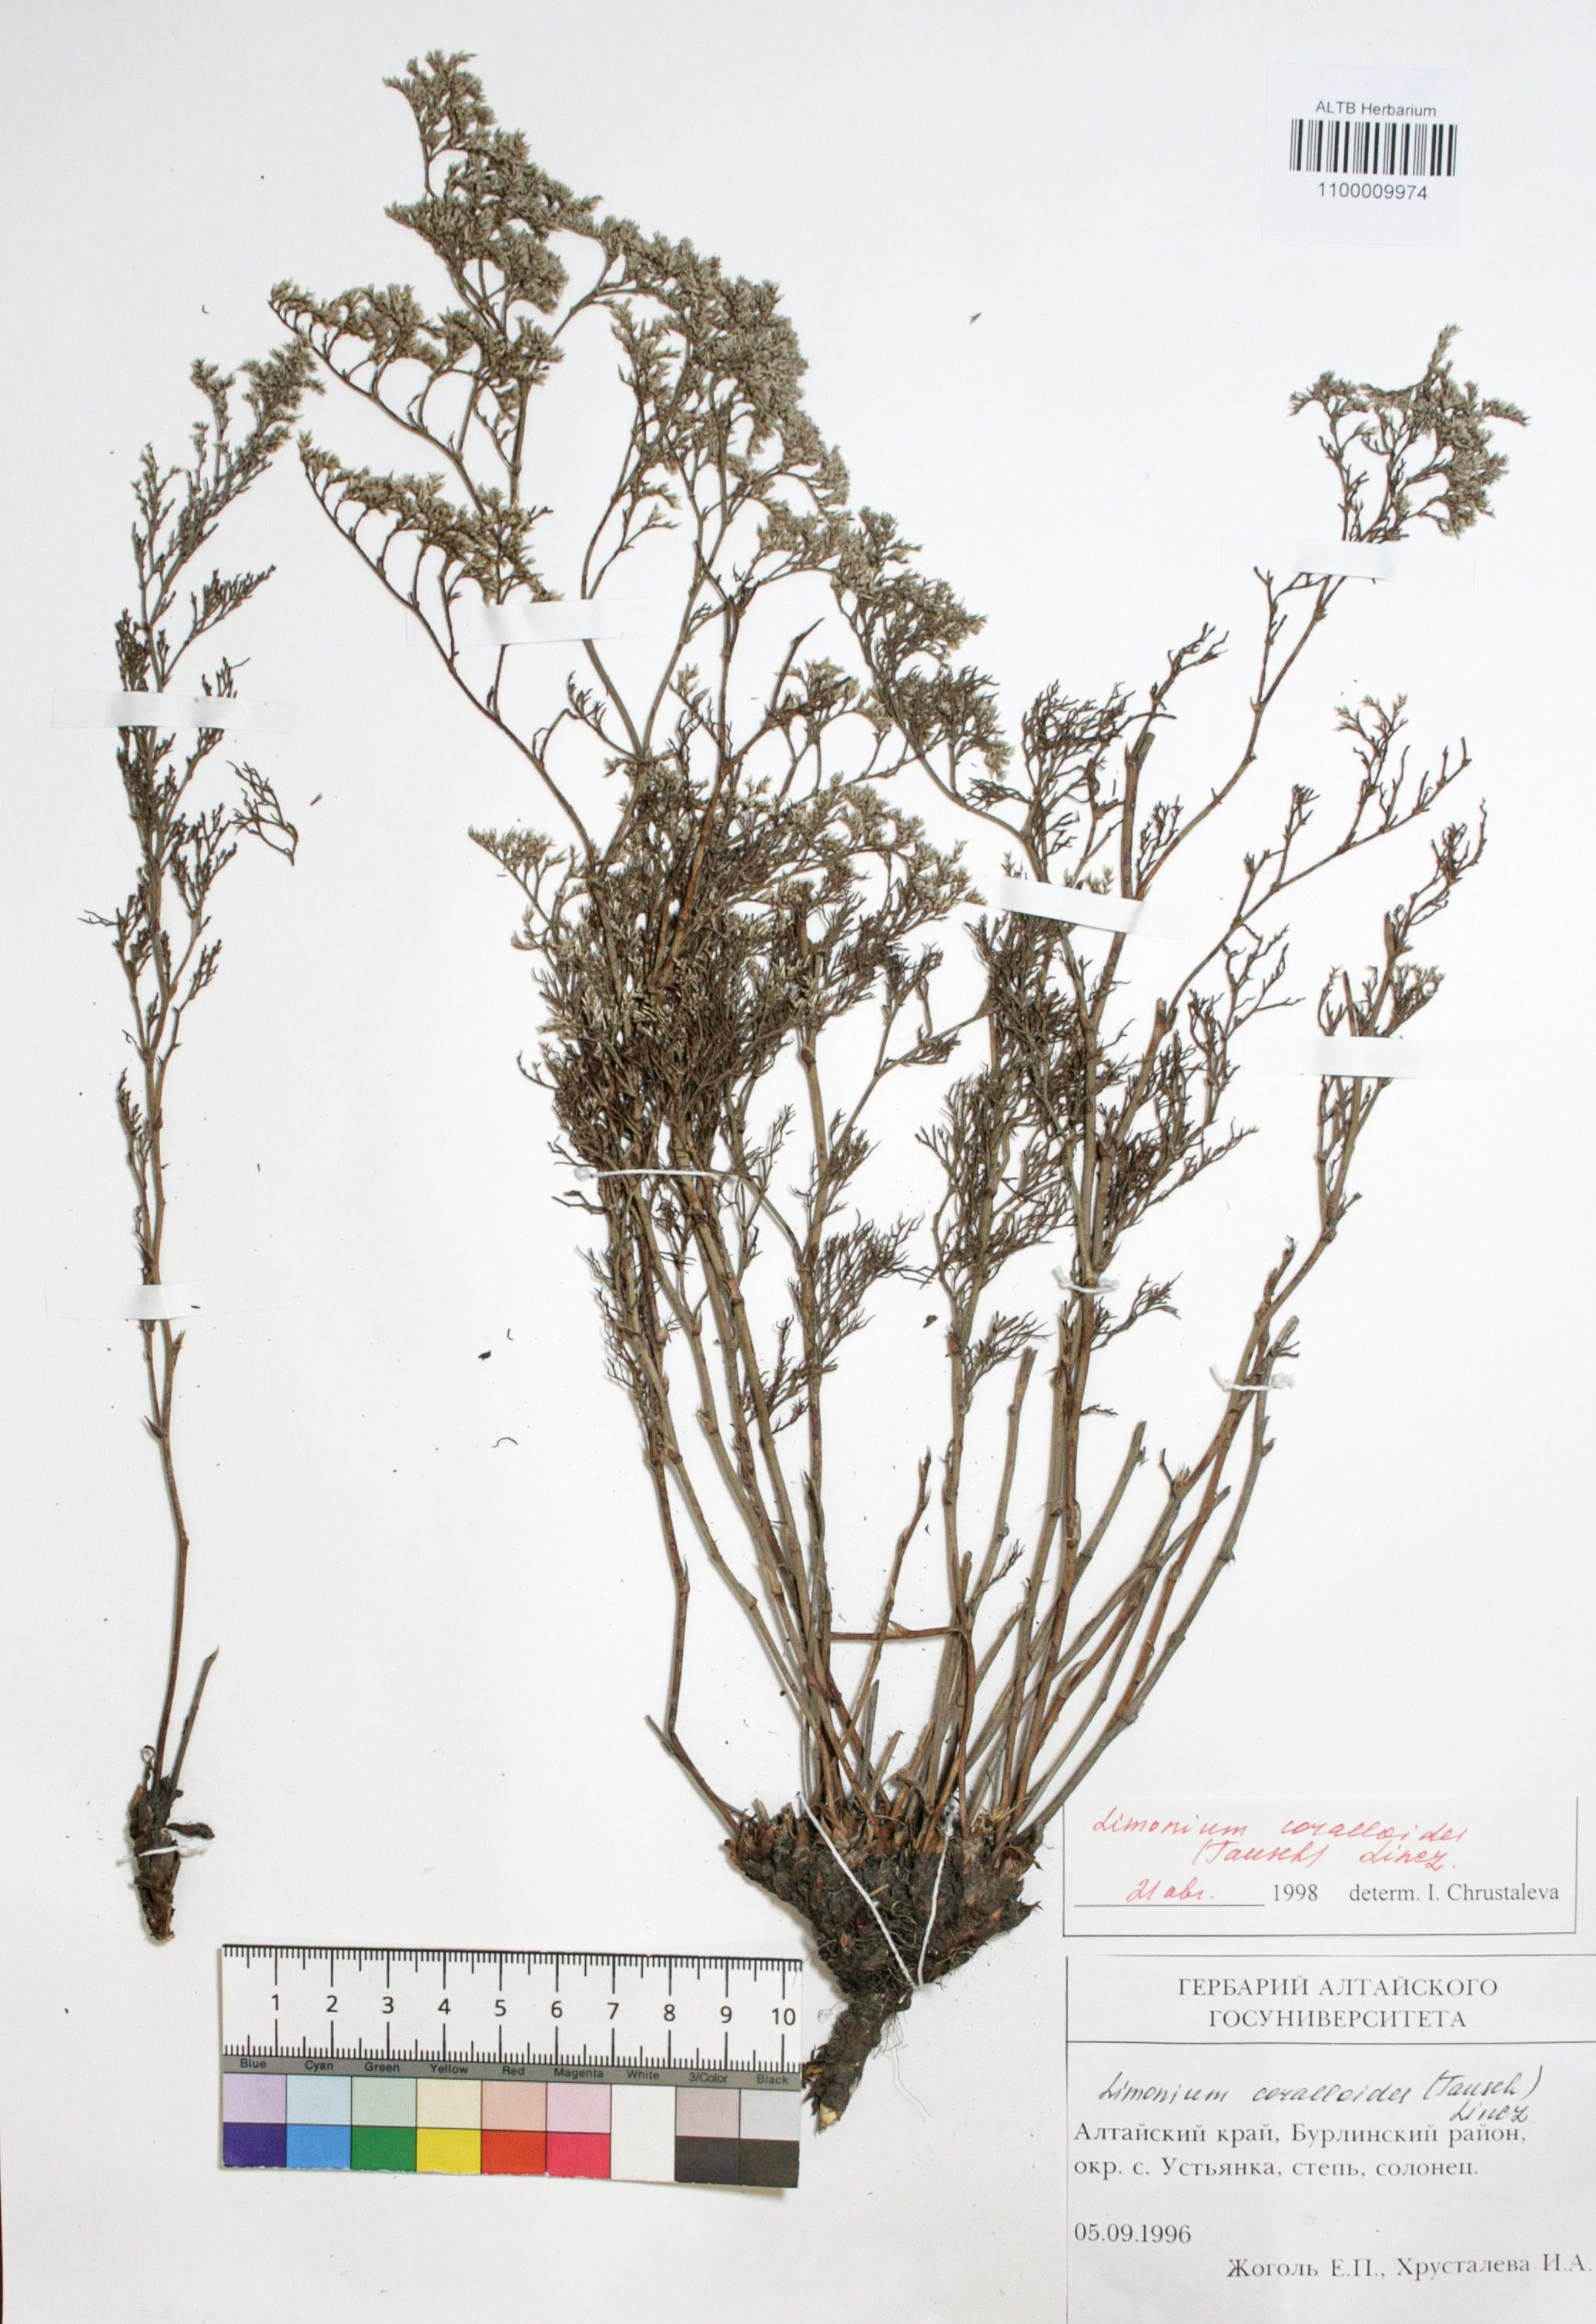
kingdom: Plantae
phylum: Tracheophyta
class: Magnoliopsida
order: Caryophyllales
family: Plumbaginaceae
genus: Limonium
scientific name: Limonium coralloides
